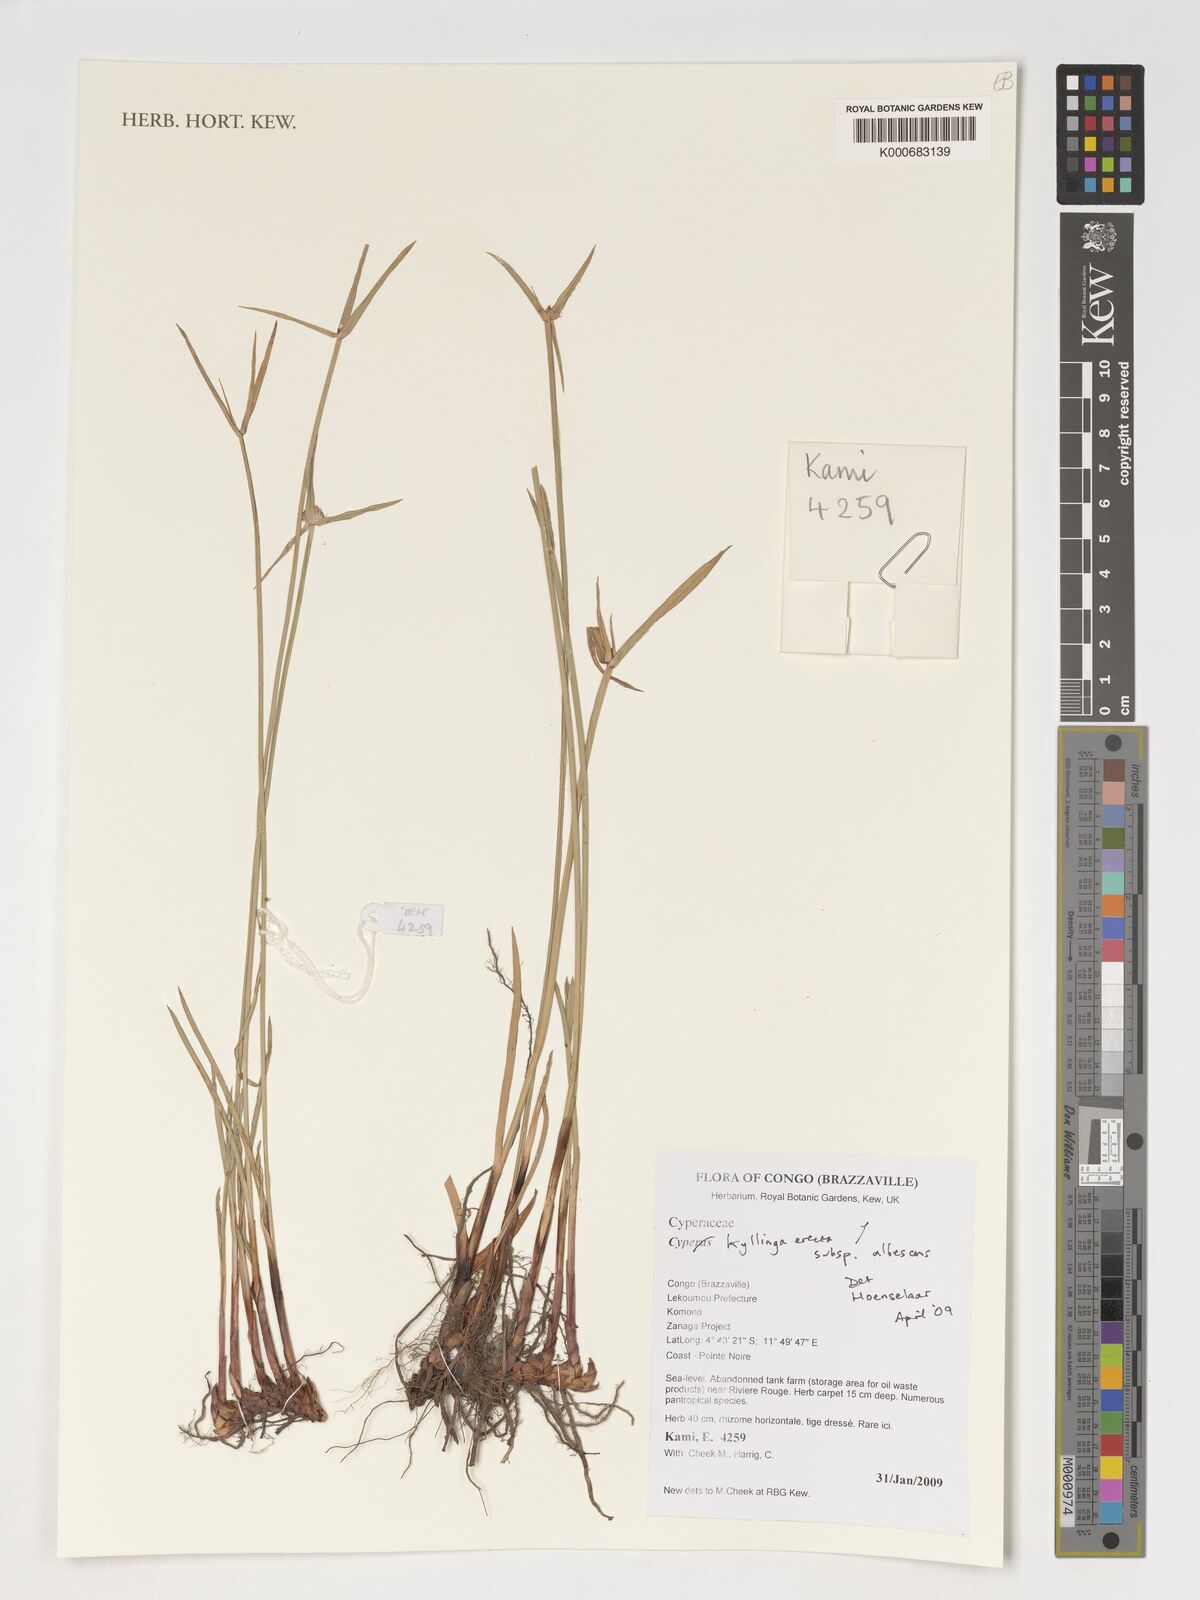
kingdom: Plantae
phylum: Tracheophyta
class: Liliopsida
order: Poales
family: Cyperaceae
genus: Cyperus
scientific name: Cyperus erectus
